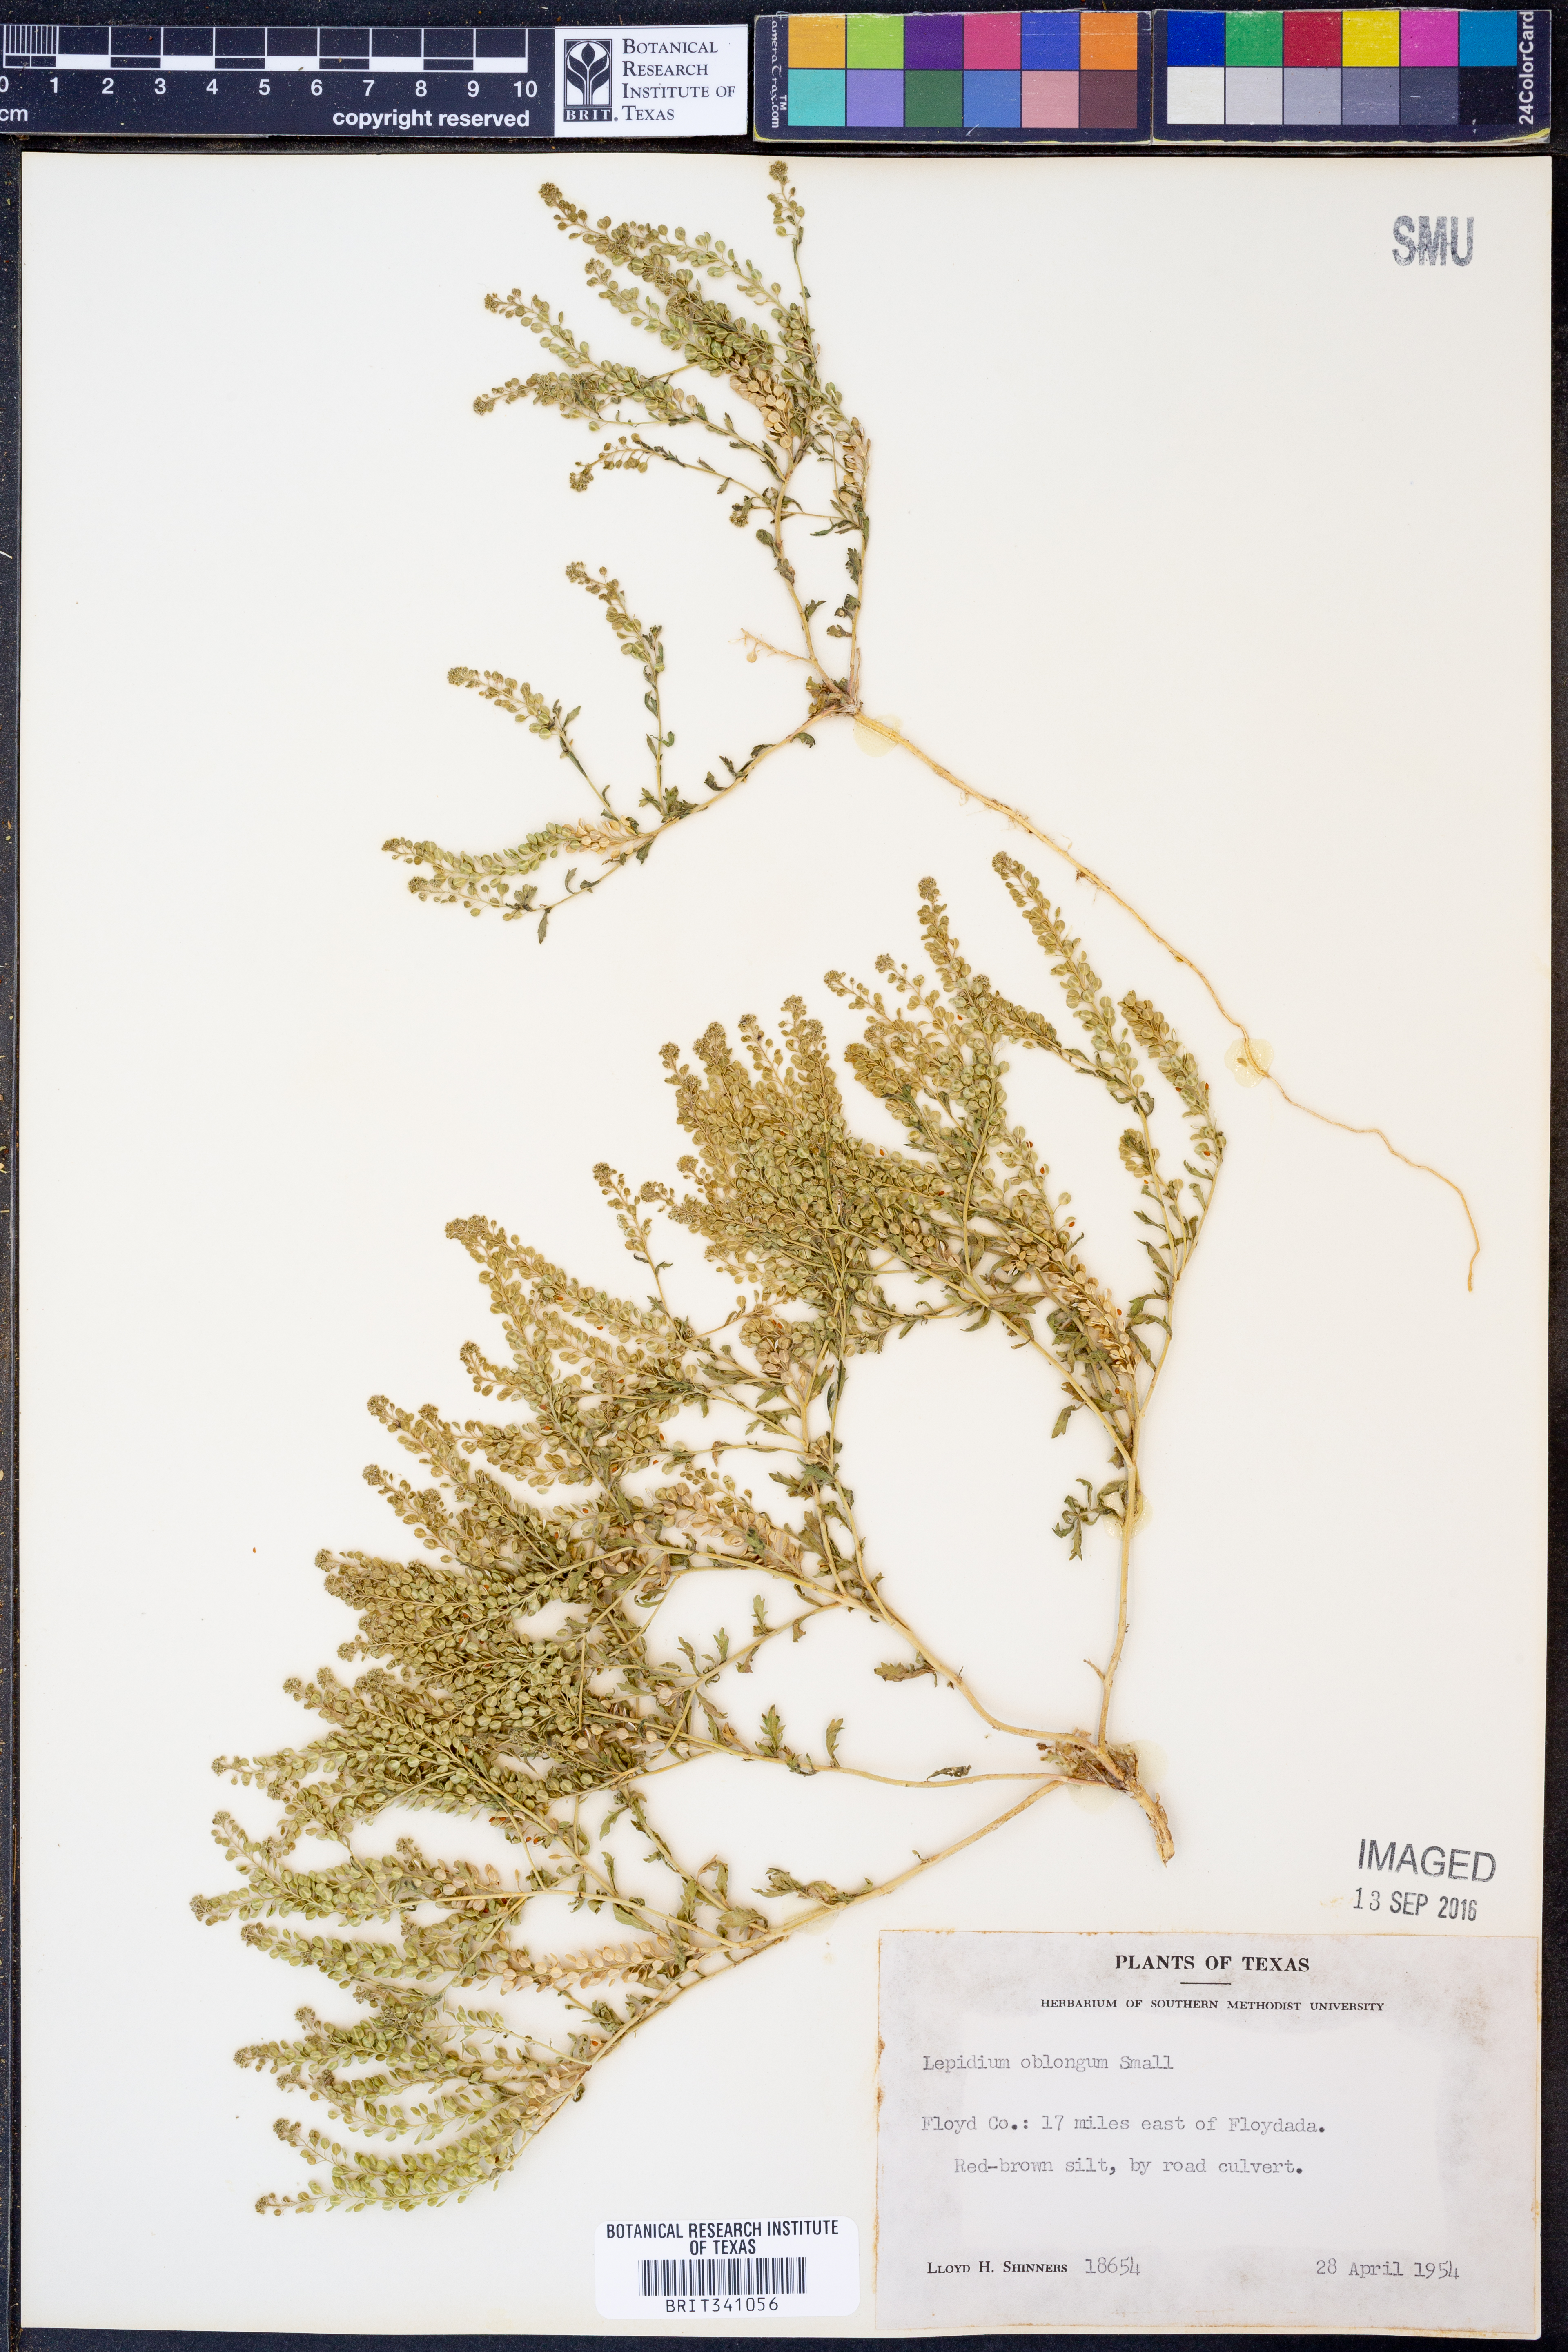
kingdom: Plantae
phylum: Tracheophyta
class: Magnoliopsida
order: Brassicales
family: Brassicaceae
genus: Lepidium
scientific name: Lepidium oblongum
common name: Veiny pepperweed
